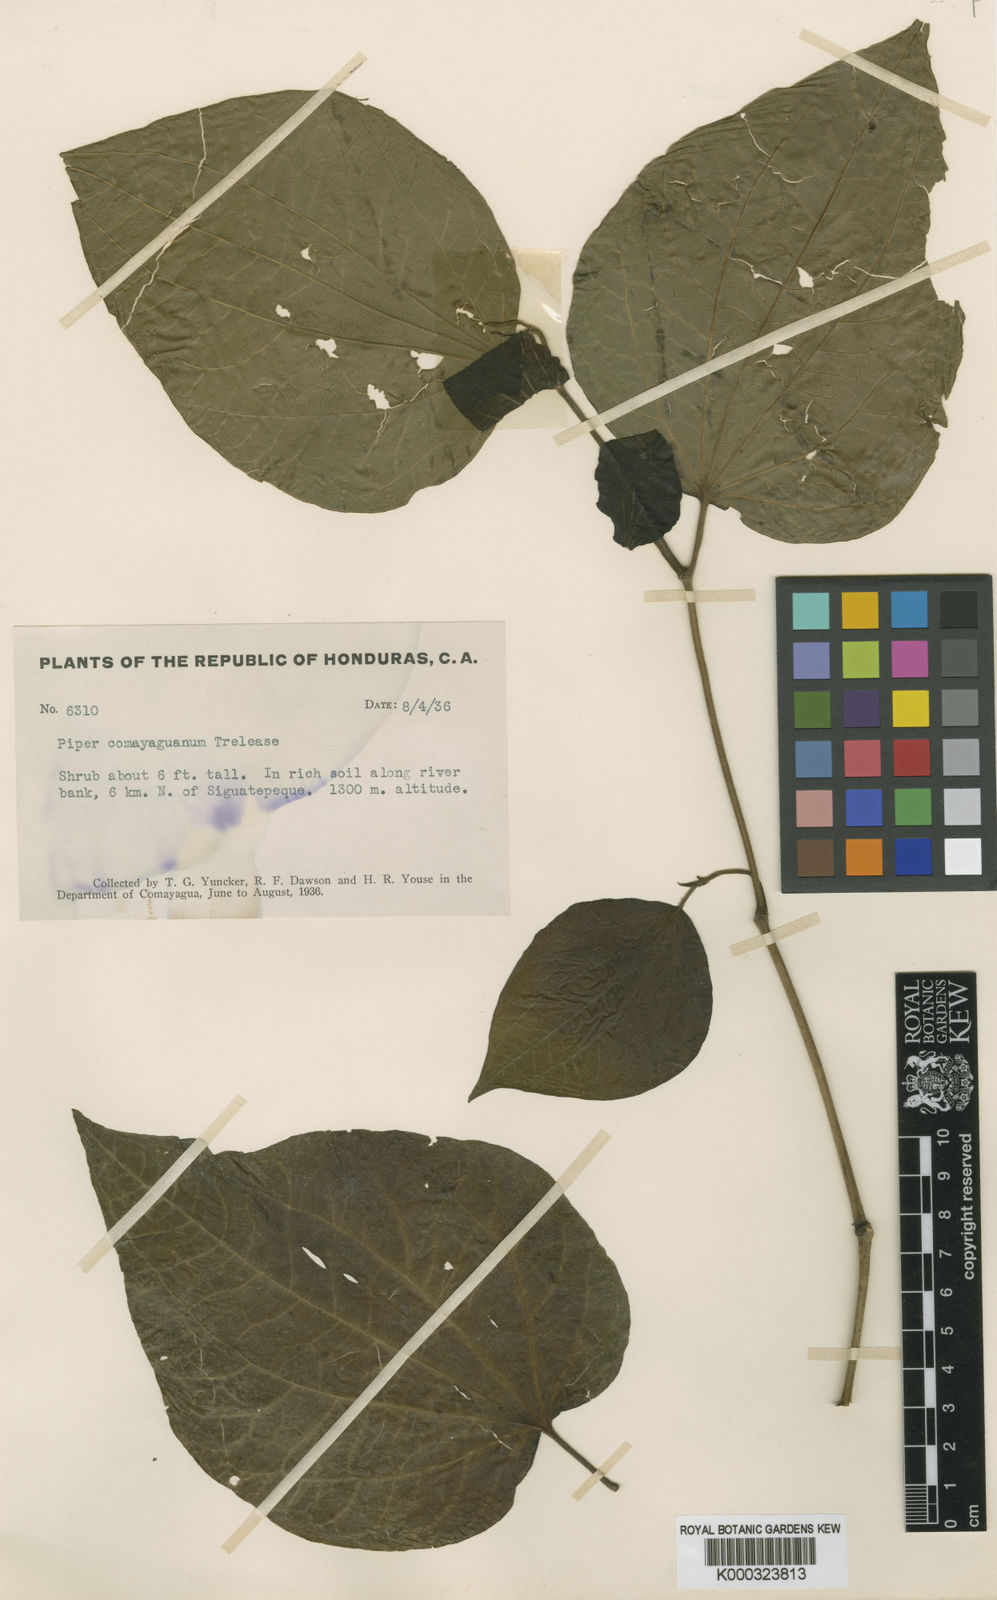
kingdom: Plantae
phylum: Tracheophyta
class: Magnoliopsida
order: Piperales
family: Piperaceae
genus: Piper
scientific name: Piper martensianum
